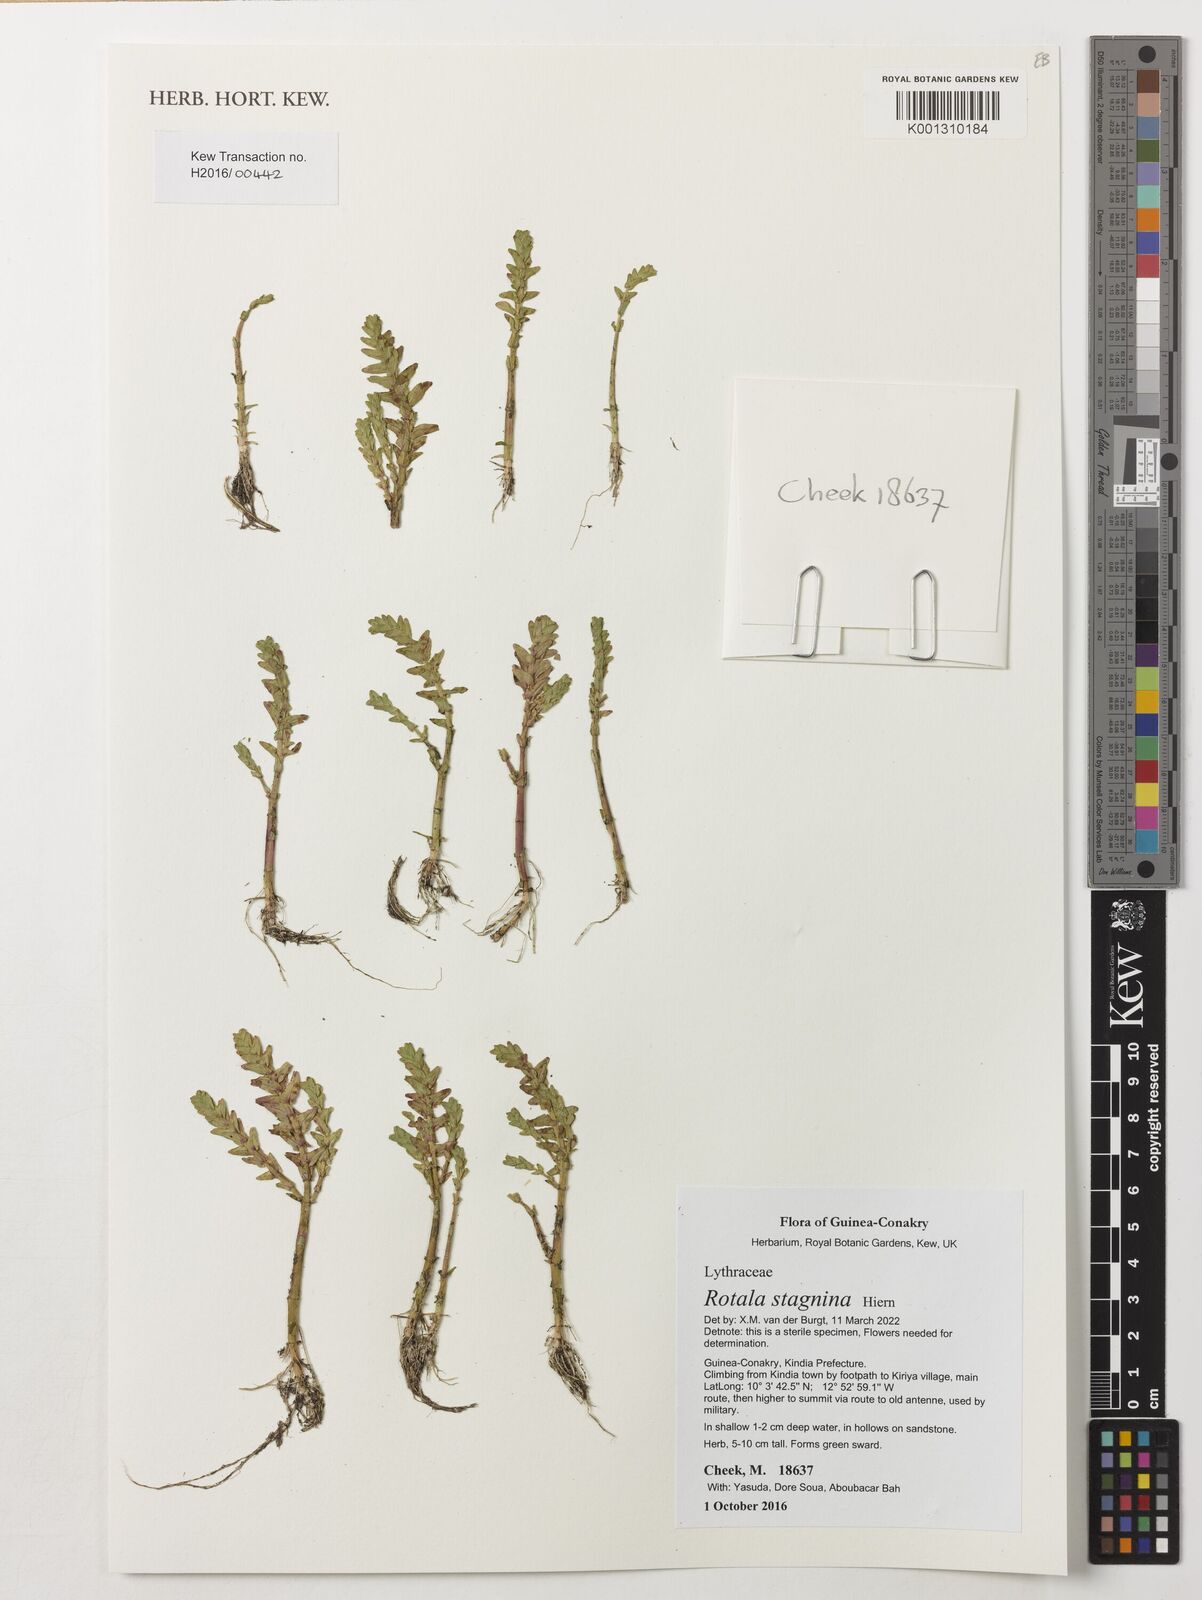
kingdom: Plantae
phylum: Tracheophyta
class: Magnoliopsida
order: Myrtales
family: Lythraceae
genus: Rotala
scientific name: Rotala stagnina
